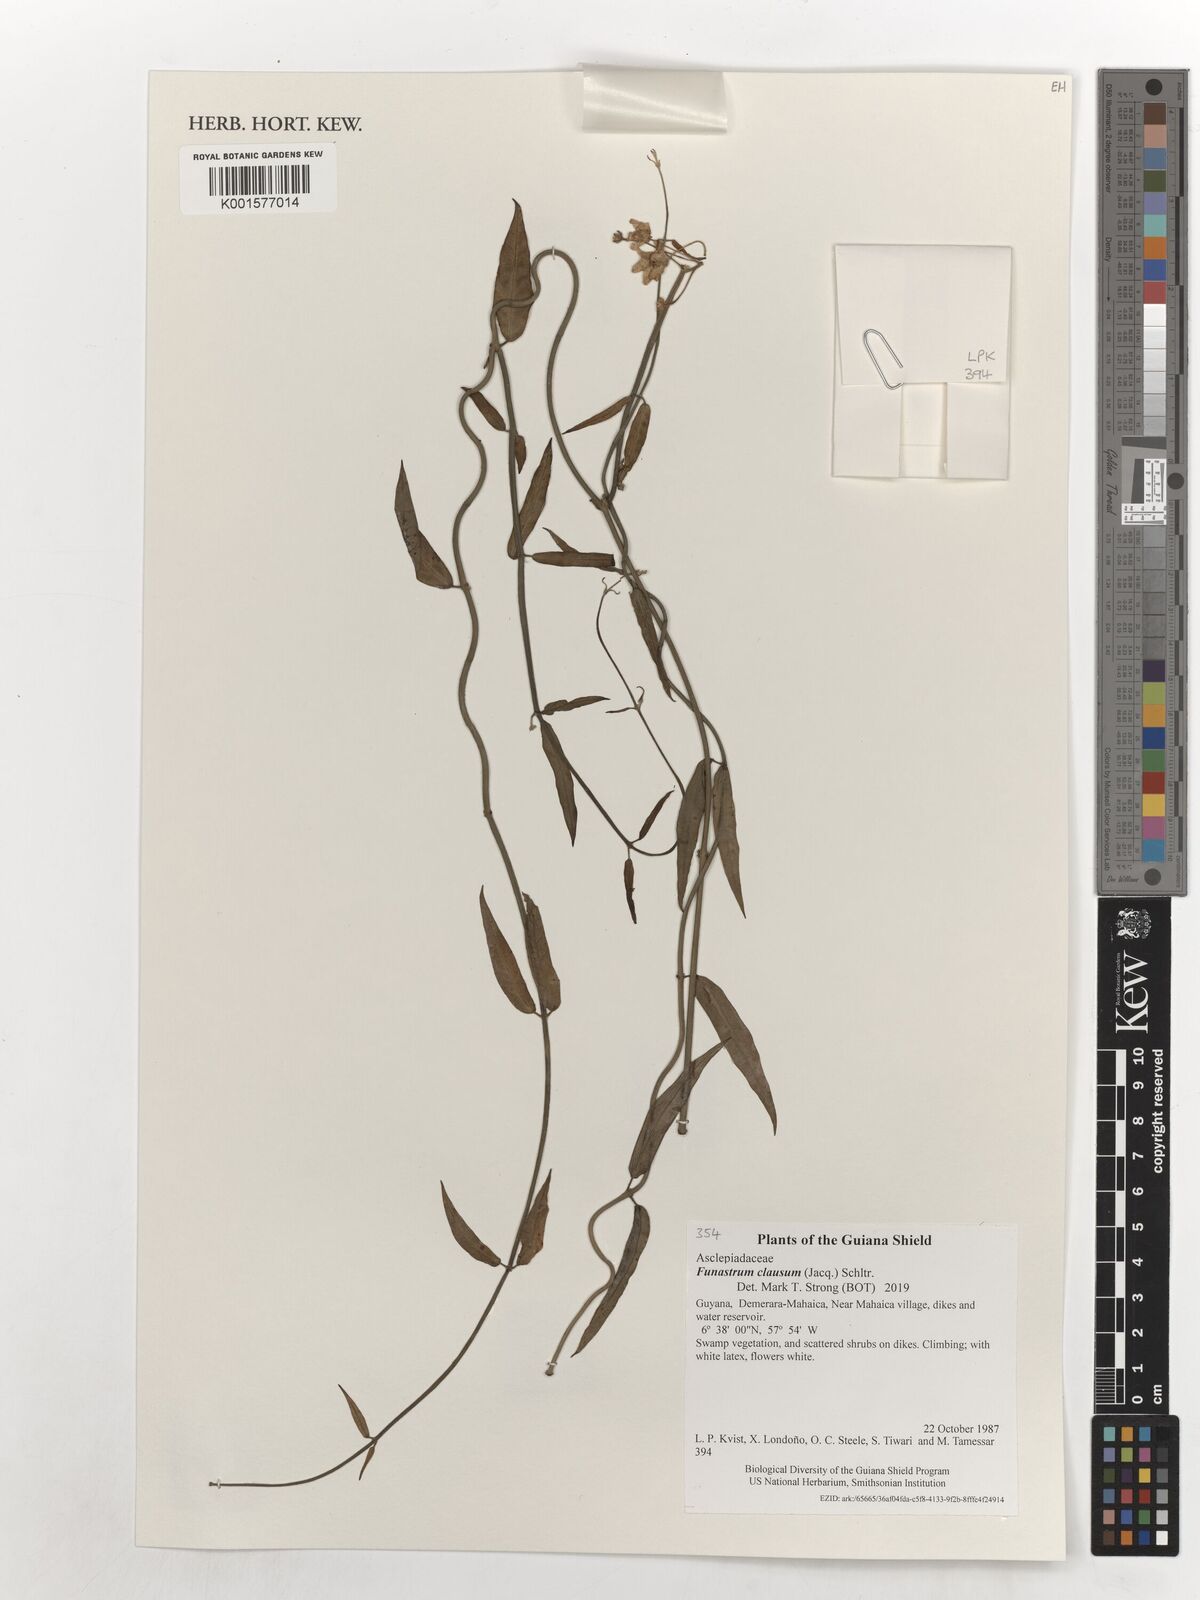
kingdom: Plantae
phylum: Tracheophyta
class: Magnoliopsida
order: Gentianales
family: Apocynaceae
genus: Funastrum
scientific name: Funastrum clausum
